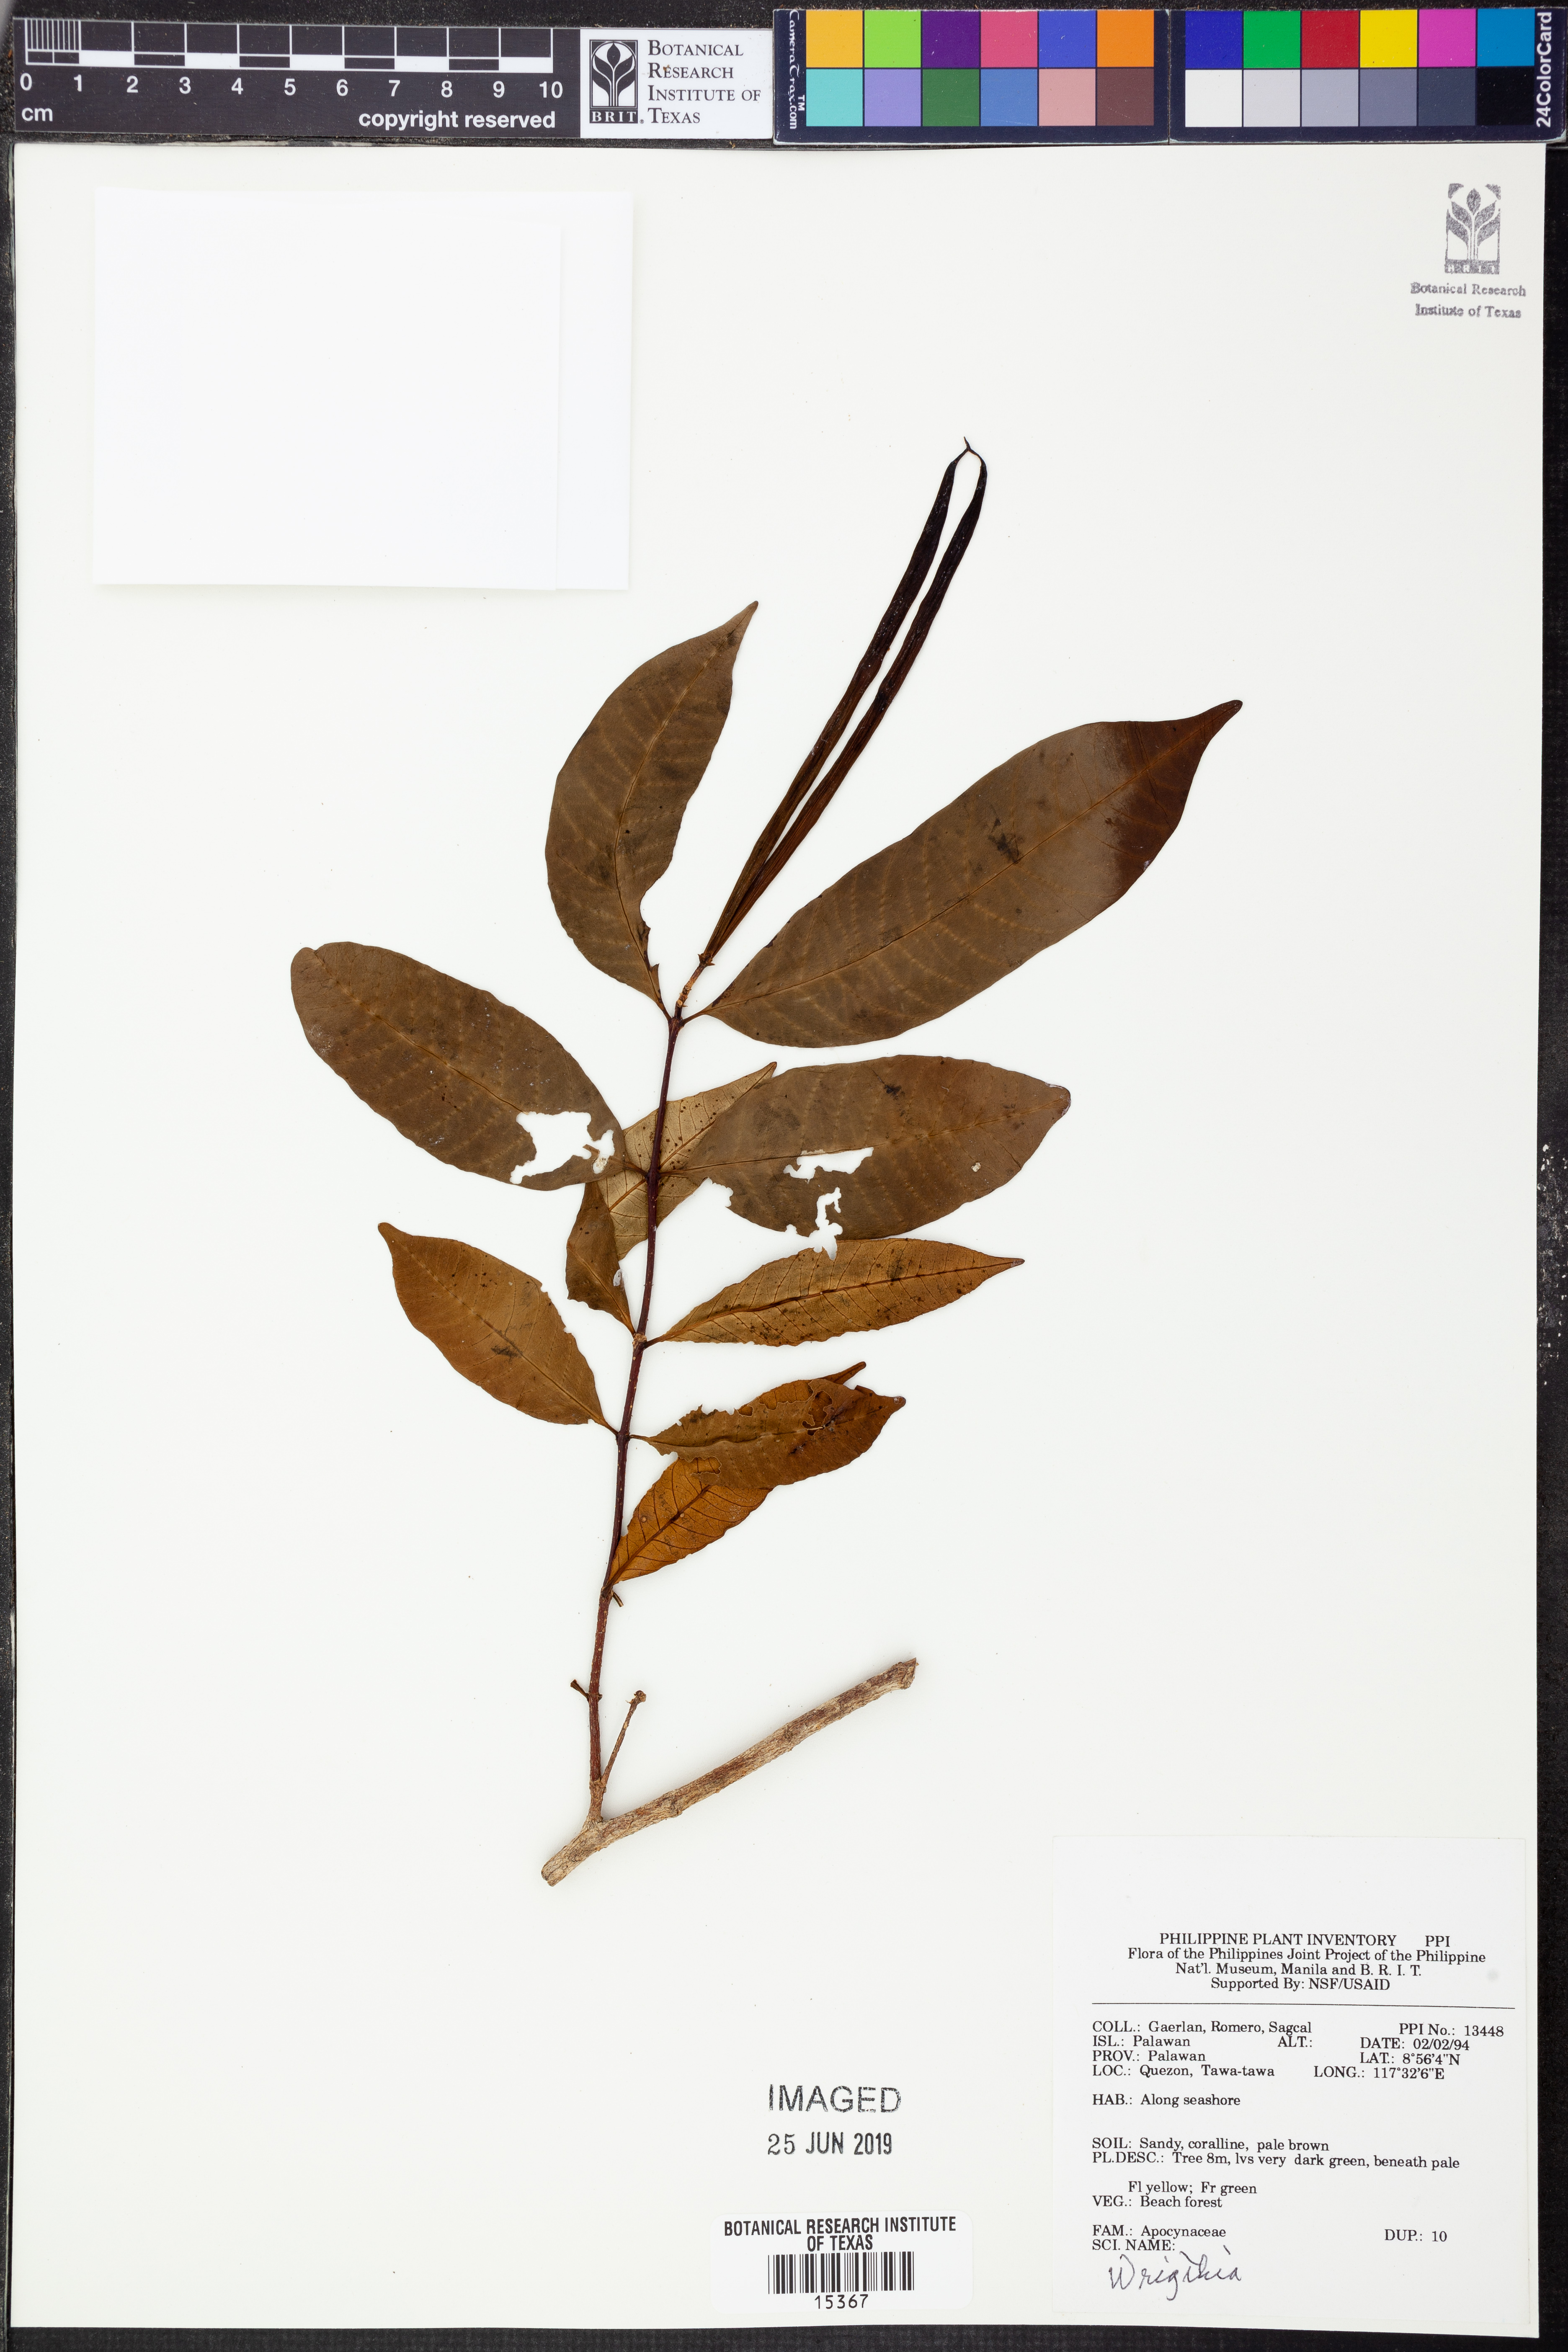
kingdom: Plantae
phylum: Tracheophyta
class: Magnoliopsida
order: Gentianales
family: Apocynaceae
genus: Wrightia
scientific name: Wrightia
